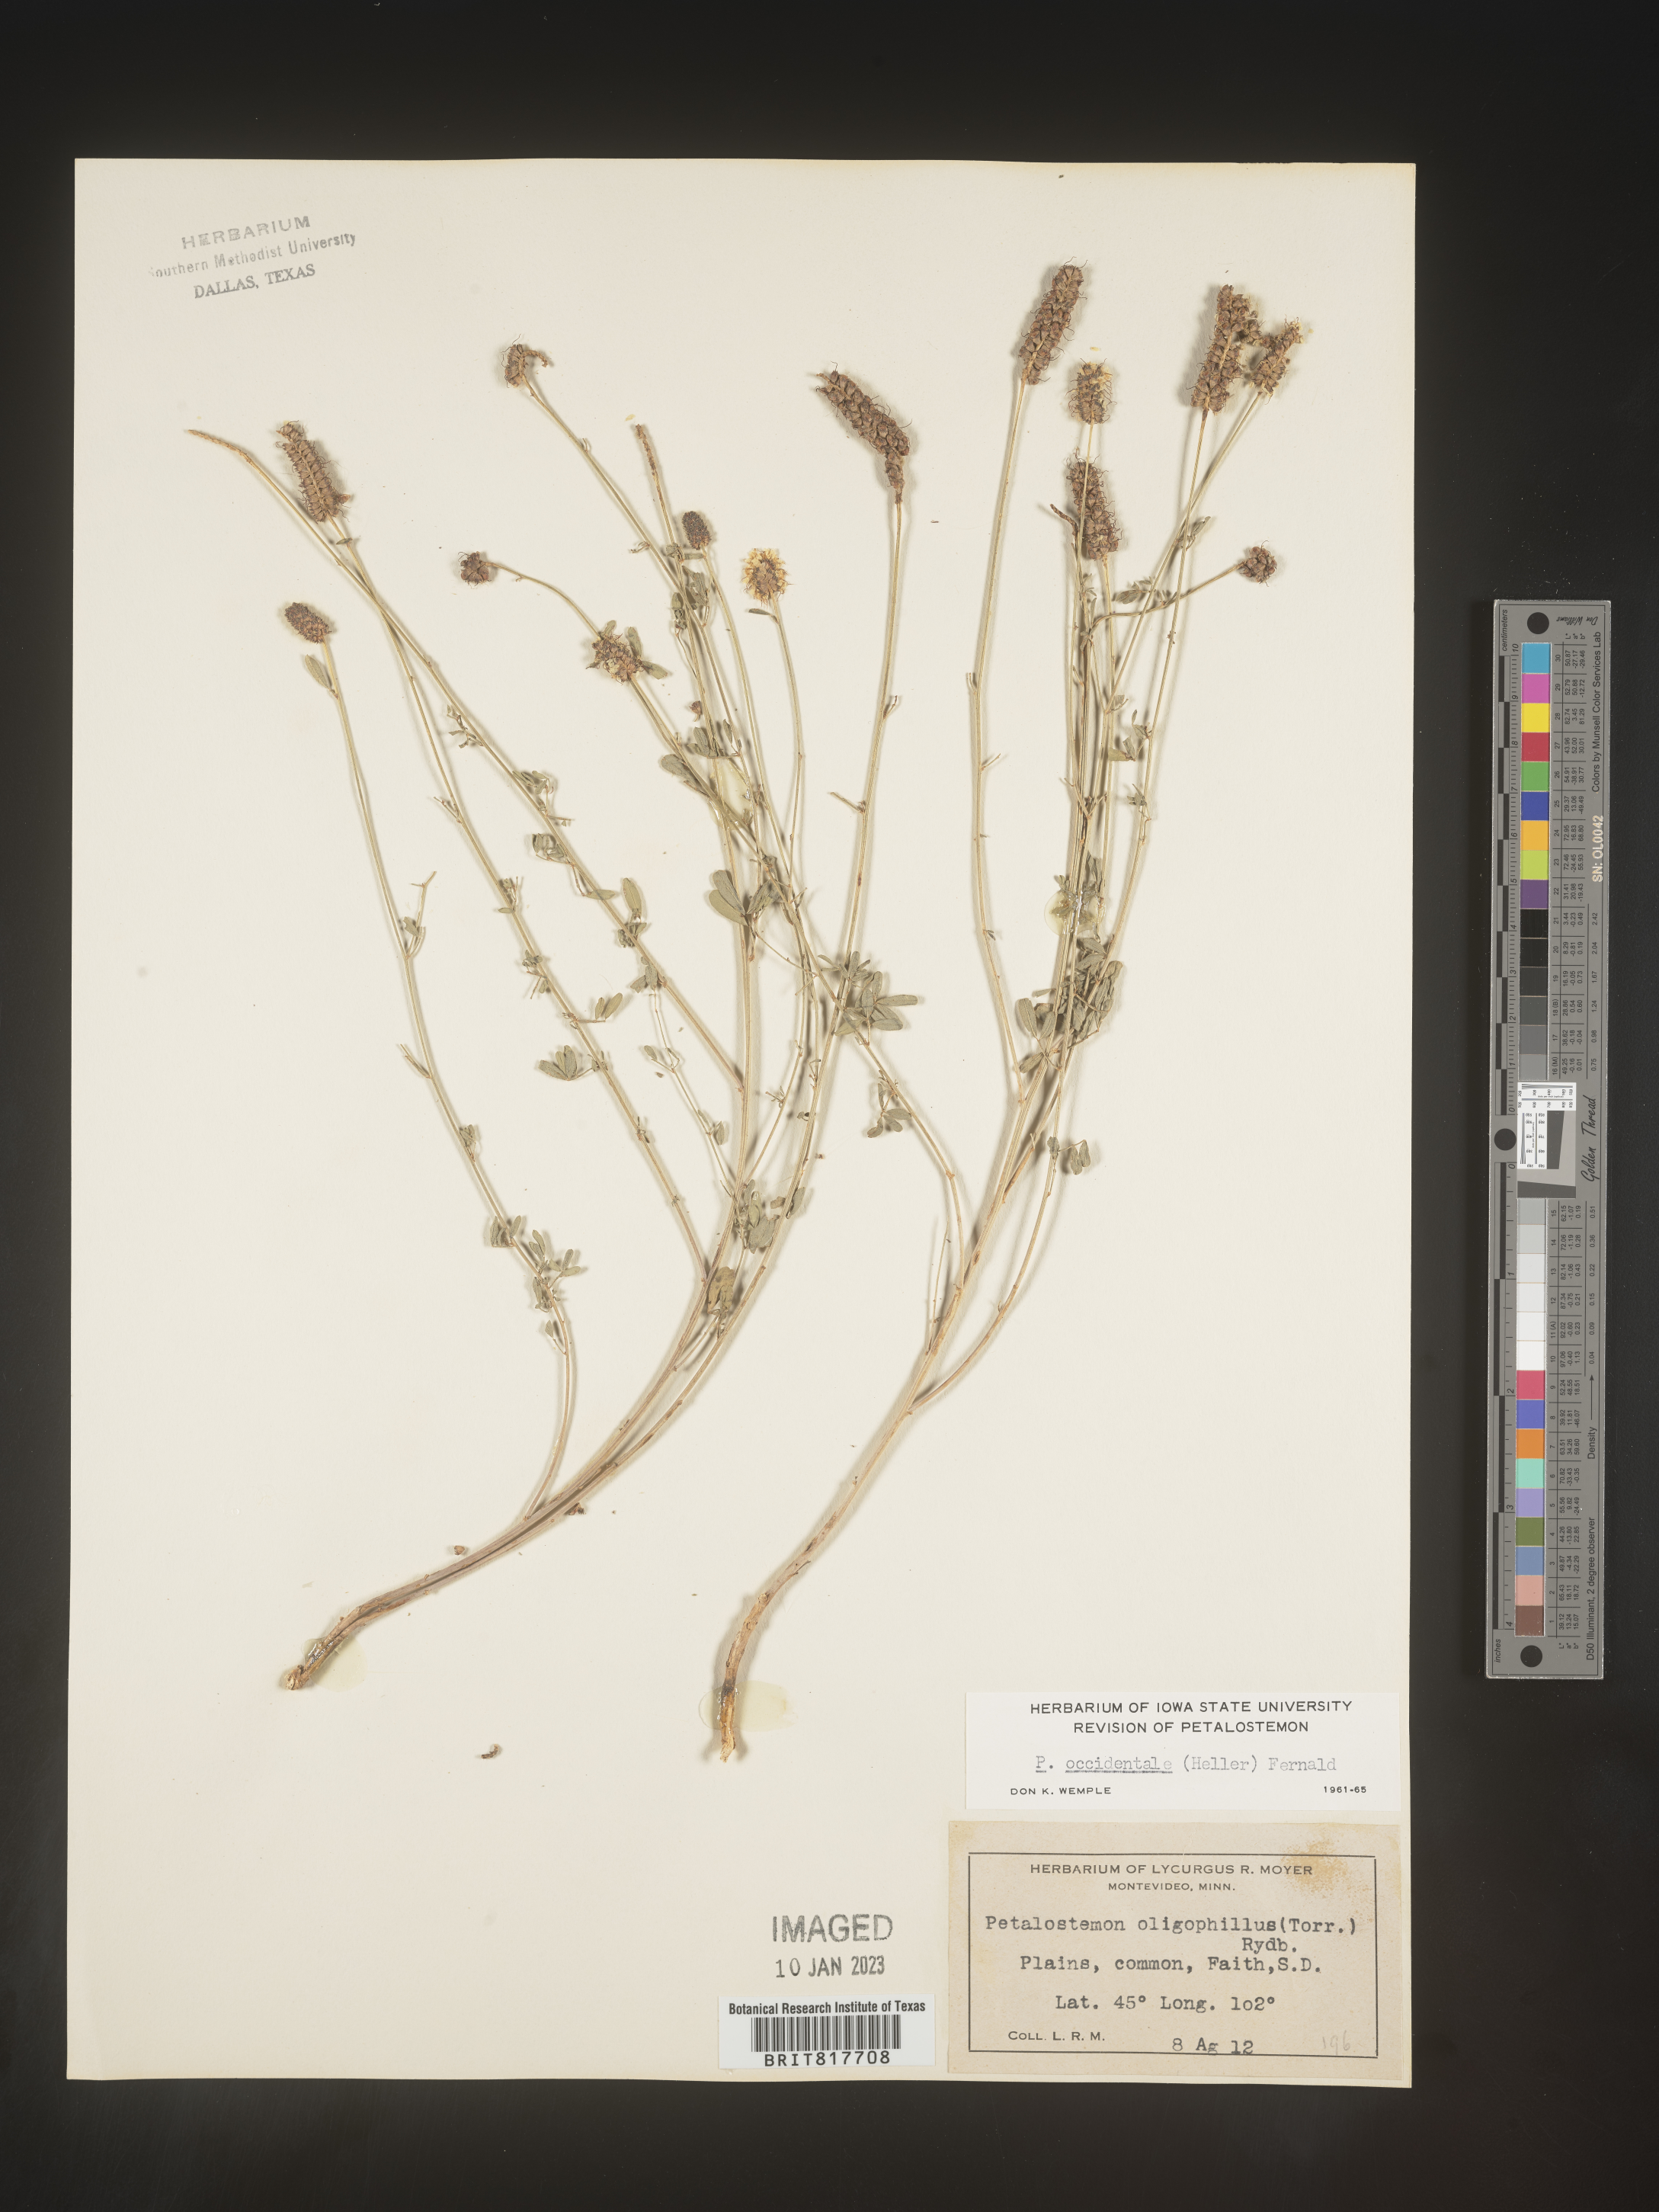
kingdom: Plantae
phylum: Tracheophyta
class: Magnoliopsida
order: Fabales
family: Fabaceae
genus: Dalea
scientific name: Dalea candida
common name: White prairie-clover
